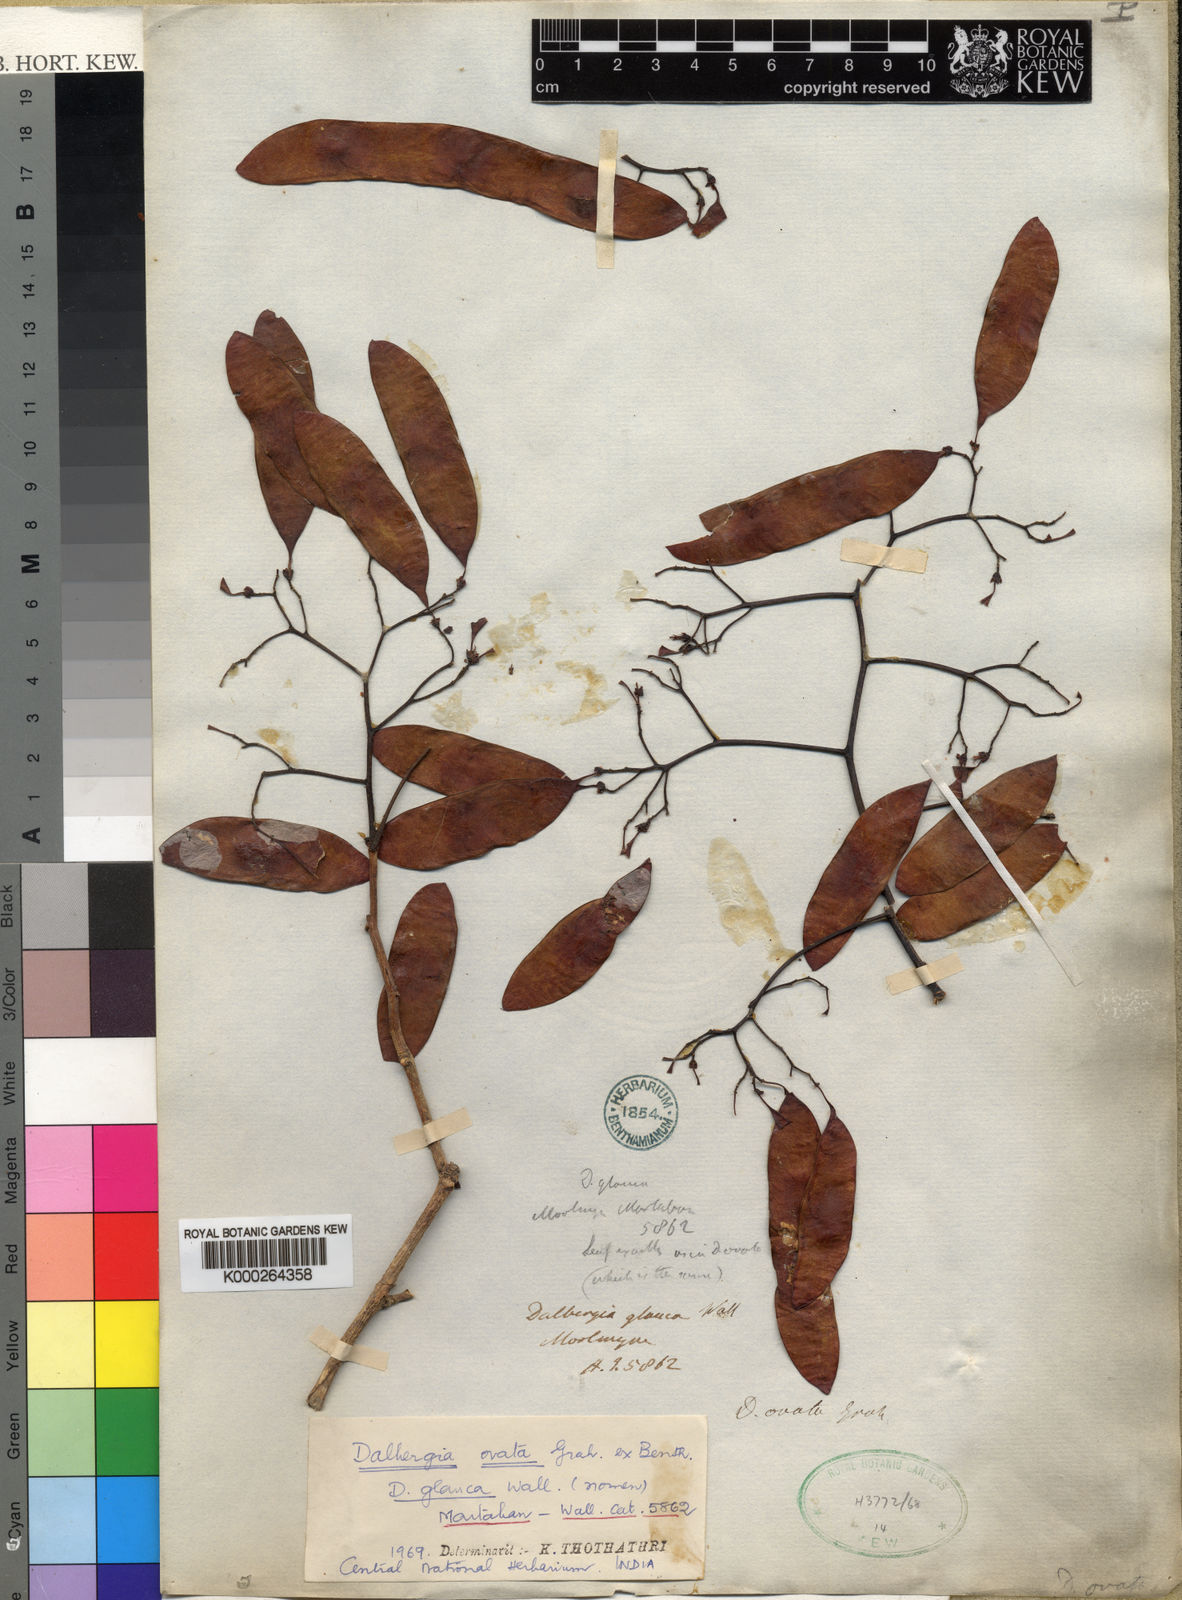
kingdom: Plantae
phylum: Tracheophyta
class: Magnoliopsida
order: Fabales
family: Fabaceae
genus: Dalbergia
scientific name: Dalbergia ovata
